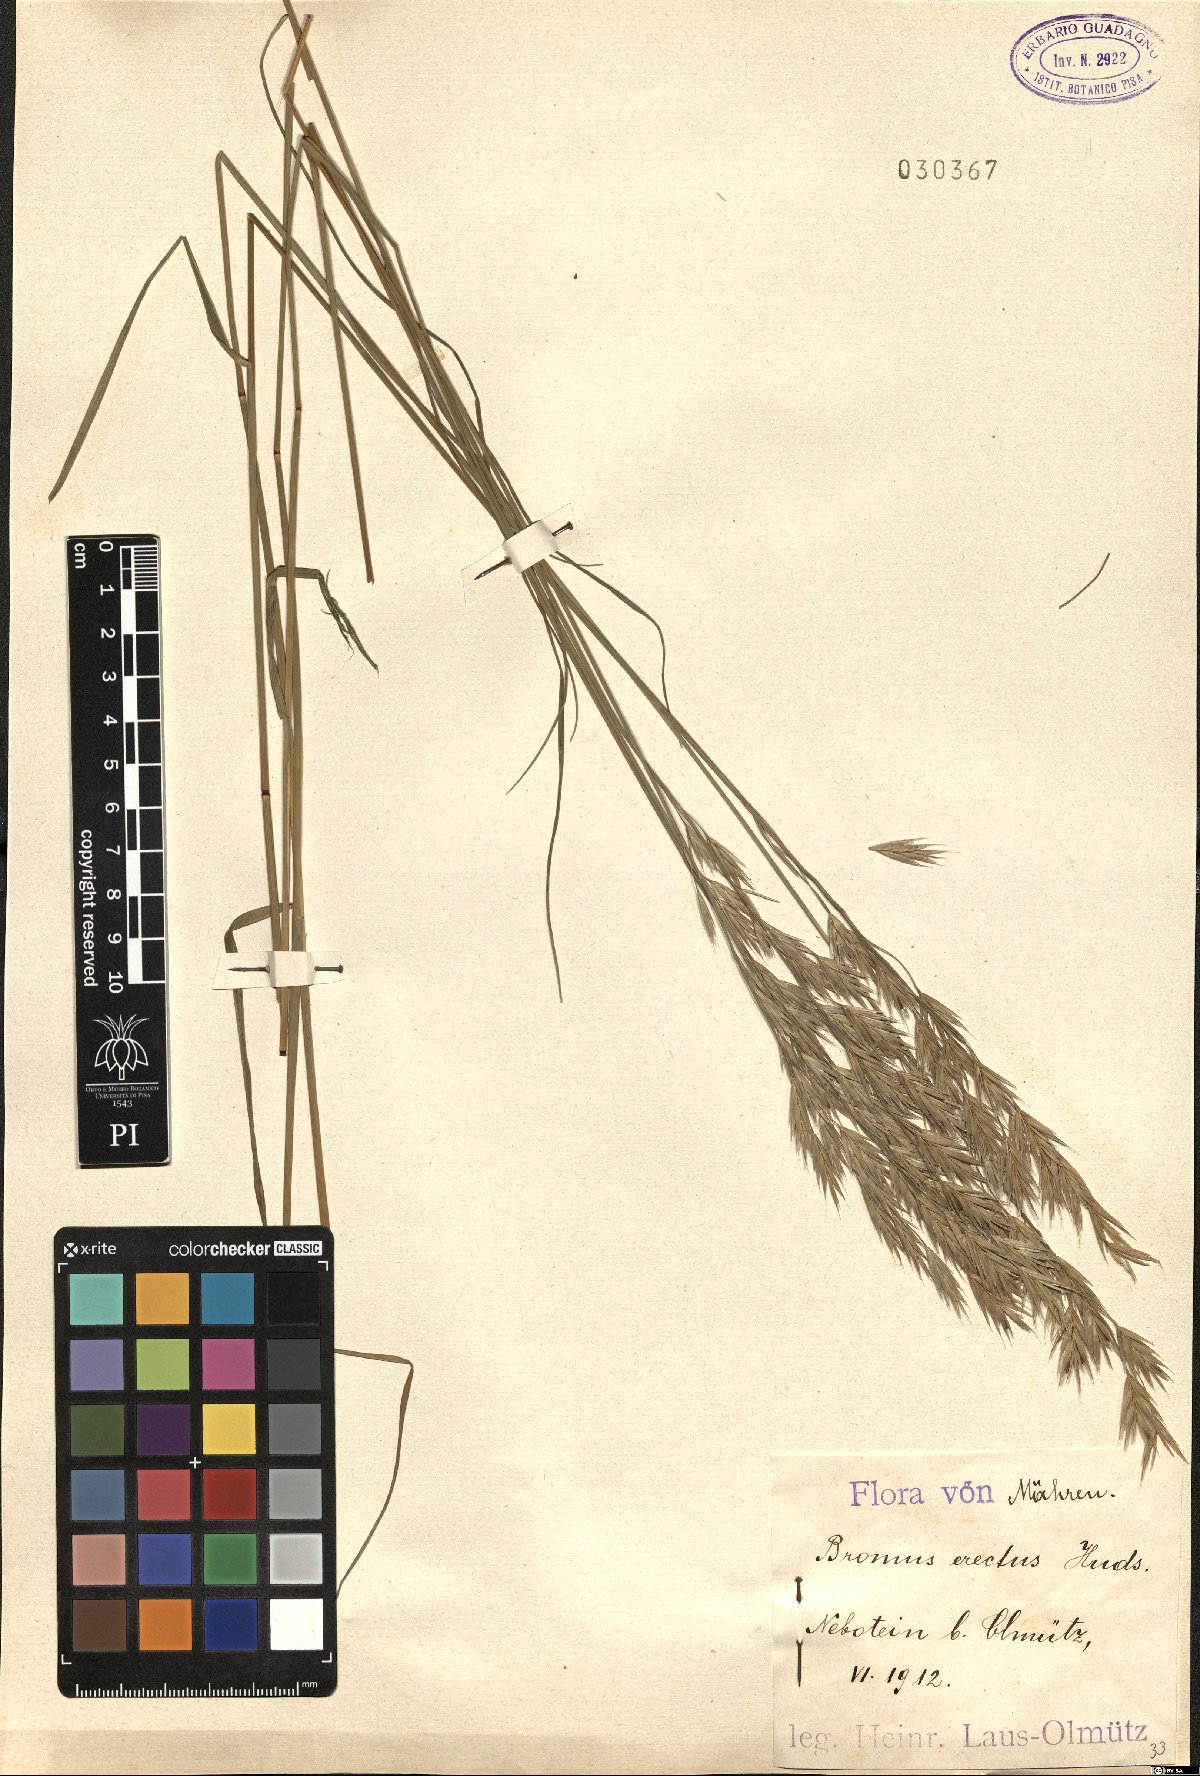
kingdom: Plantae
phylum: Tracheophyta
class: Liliopsida
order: Poales
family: Poaceae
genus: Bromus
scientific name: Bromus erectus
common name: Erect brome
